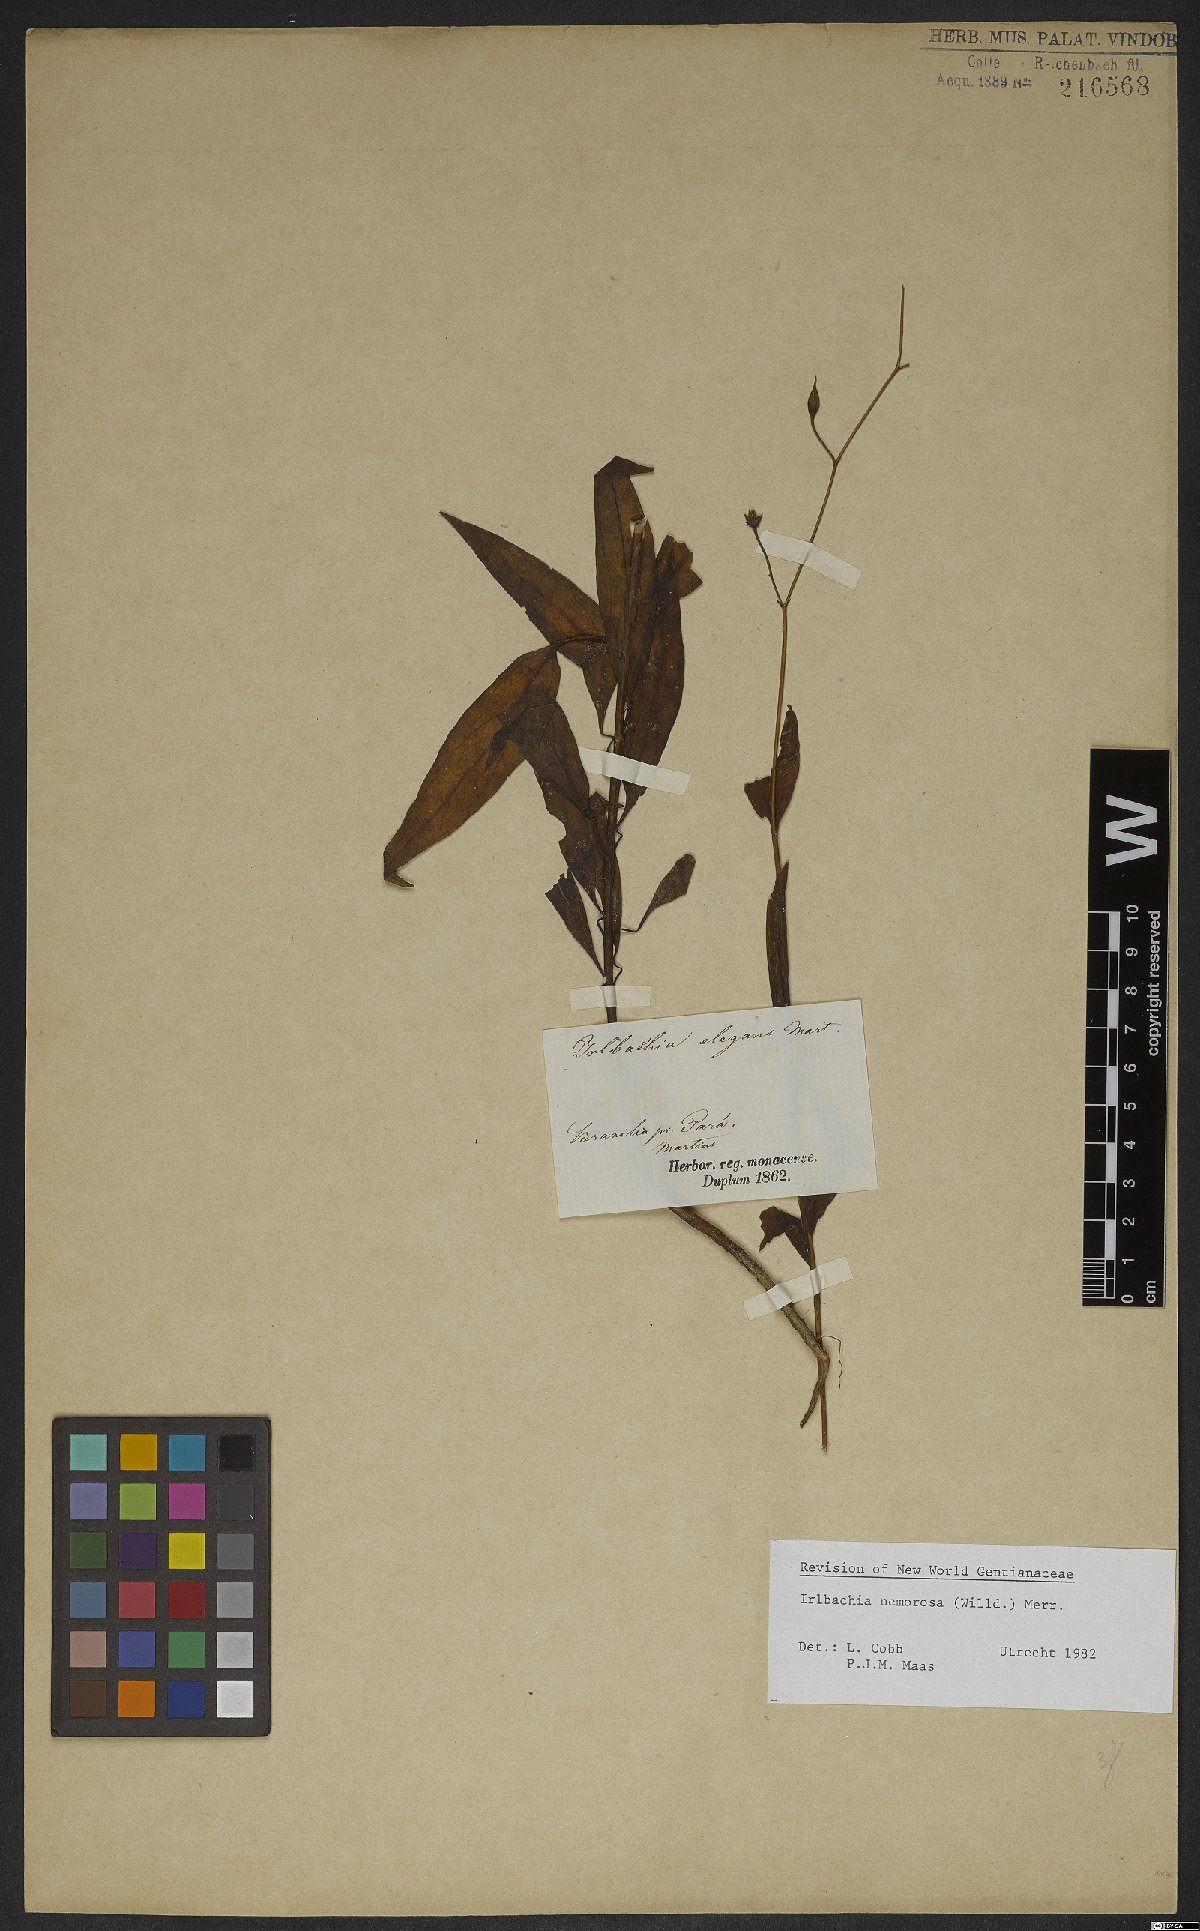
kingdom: Plantae
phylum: Tracheophyta
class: Magnoliopsida
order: Gentianales
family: Gentianaceae
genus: Irlbachia
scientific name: Irlbachia nemorosa
